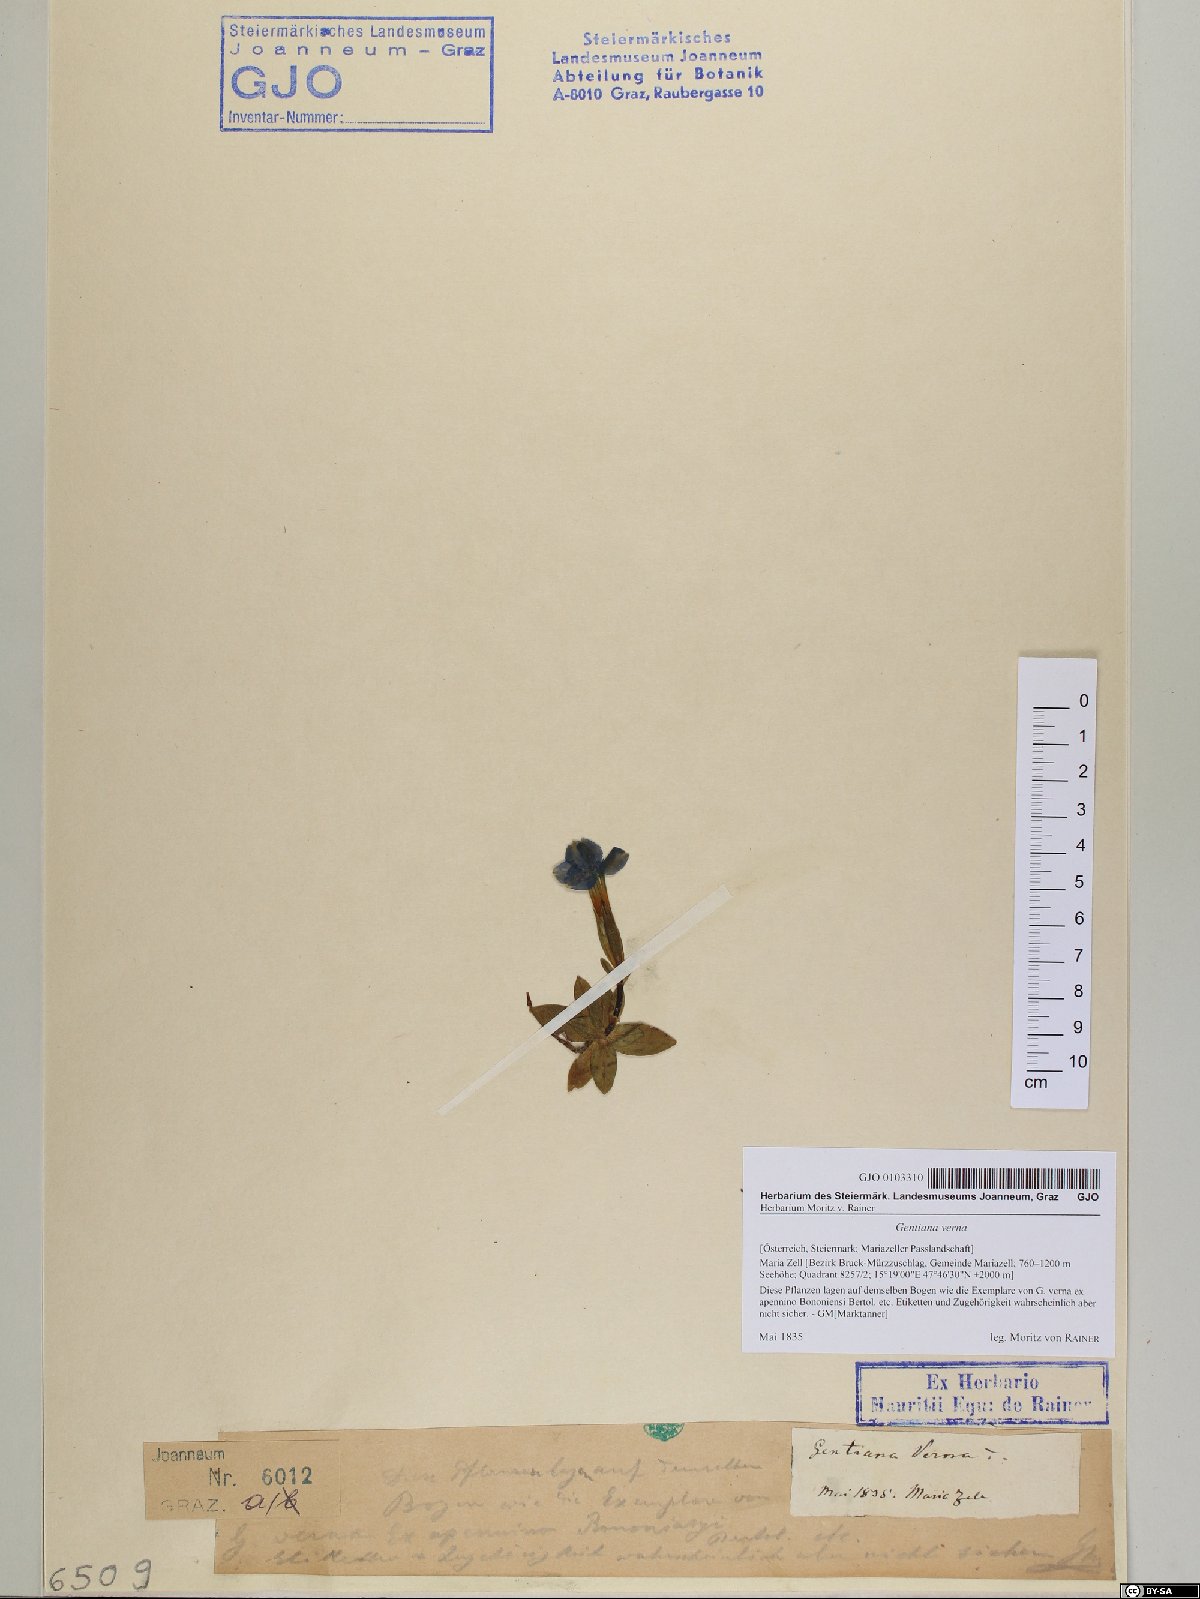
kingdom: Plantae
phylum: Tracheophyta
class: Magnoliopsida
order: Gentianales
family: Gentianaceae
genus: Gentiana
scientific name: Gentiana verna
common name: Spring gentian
